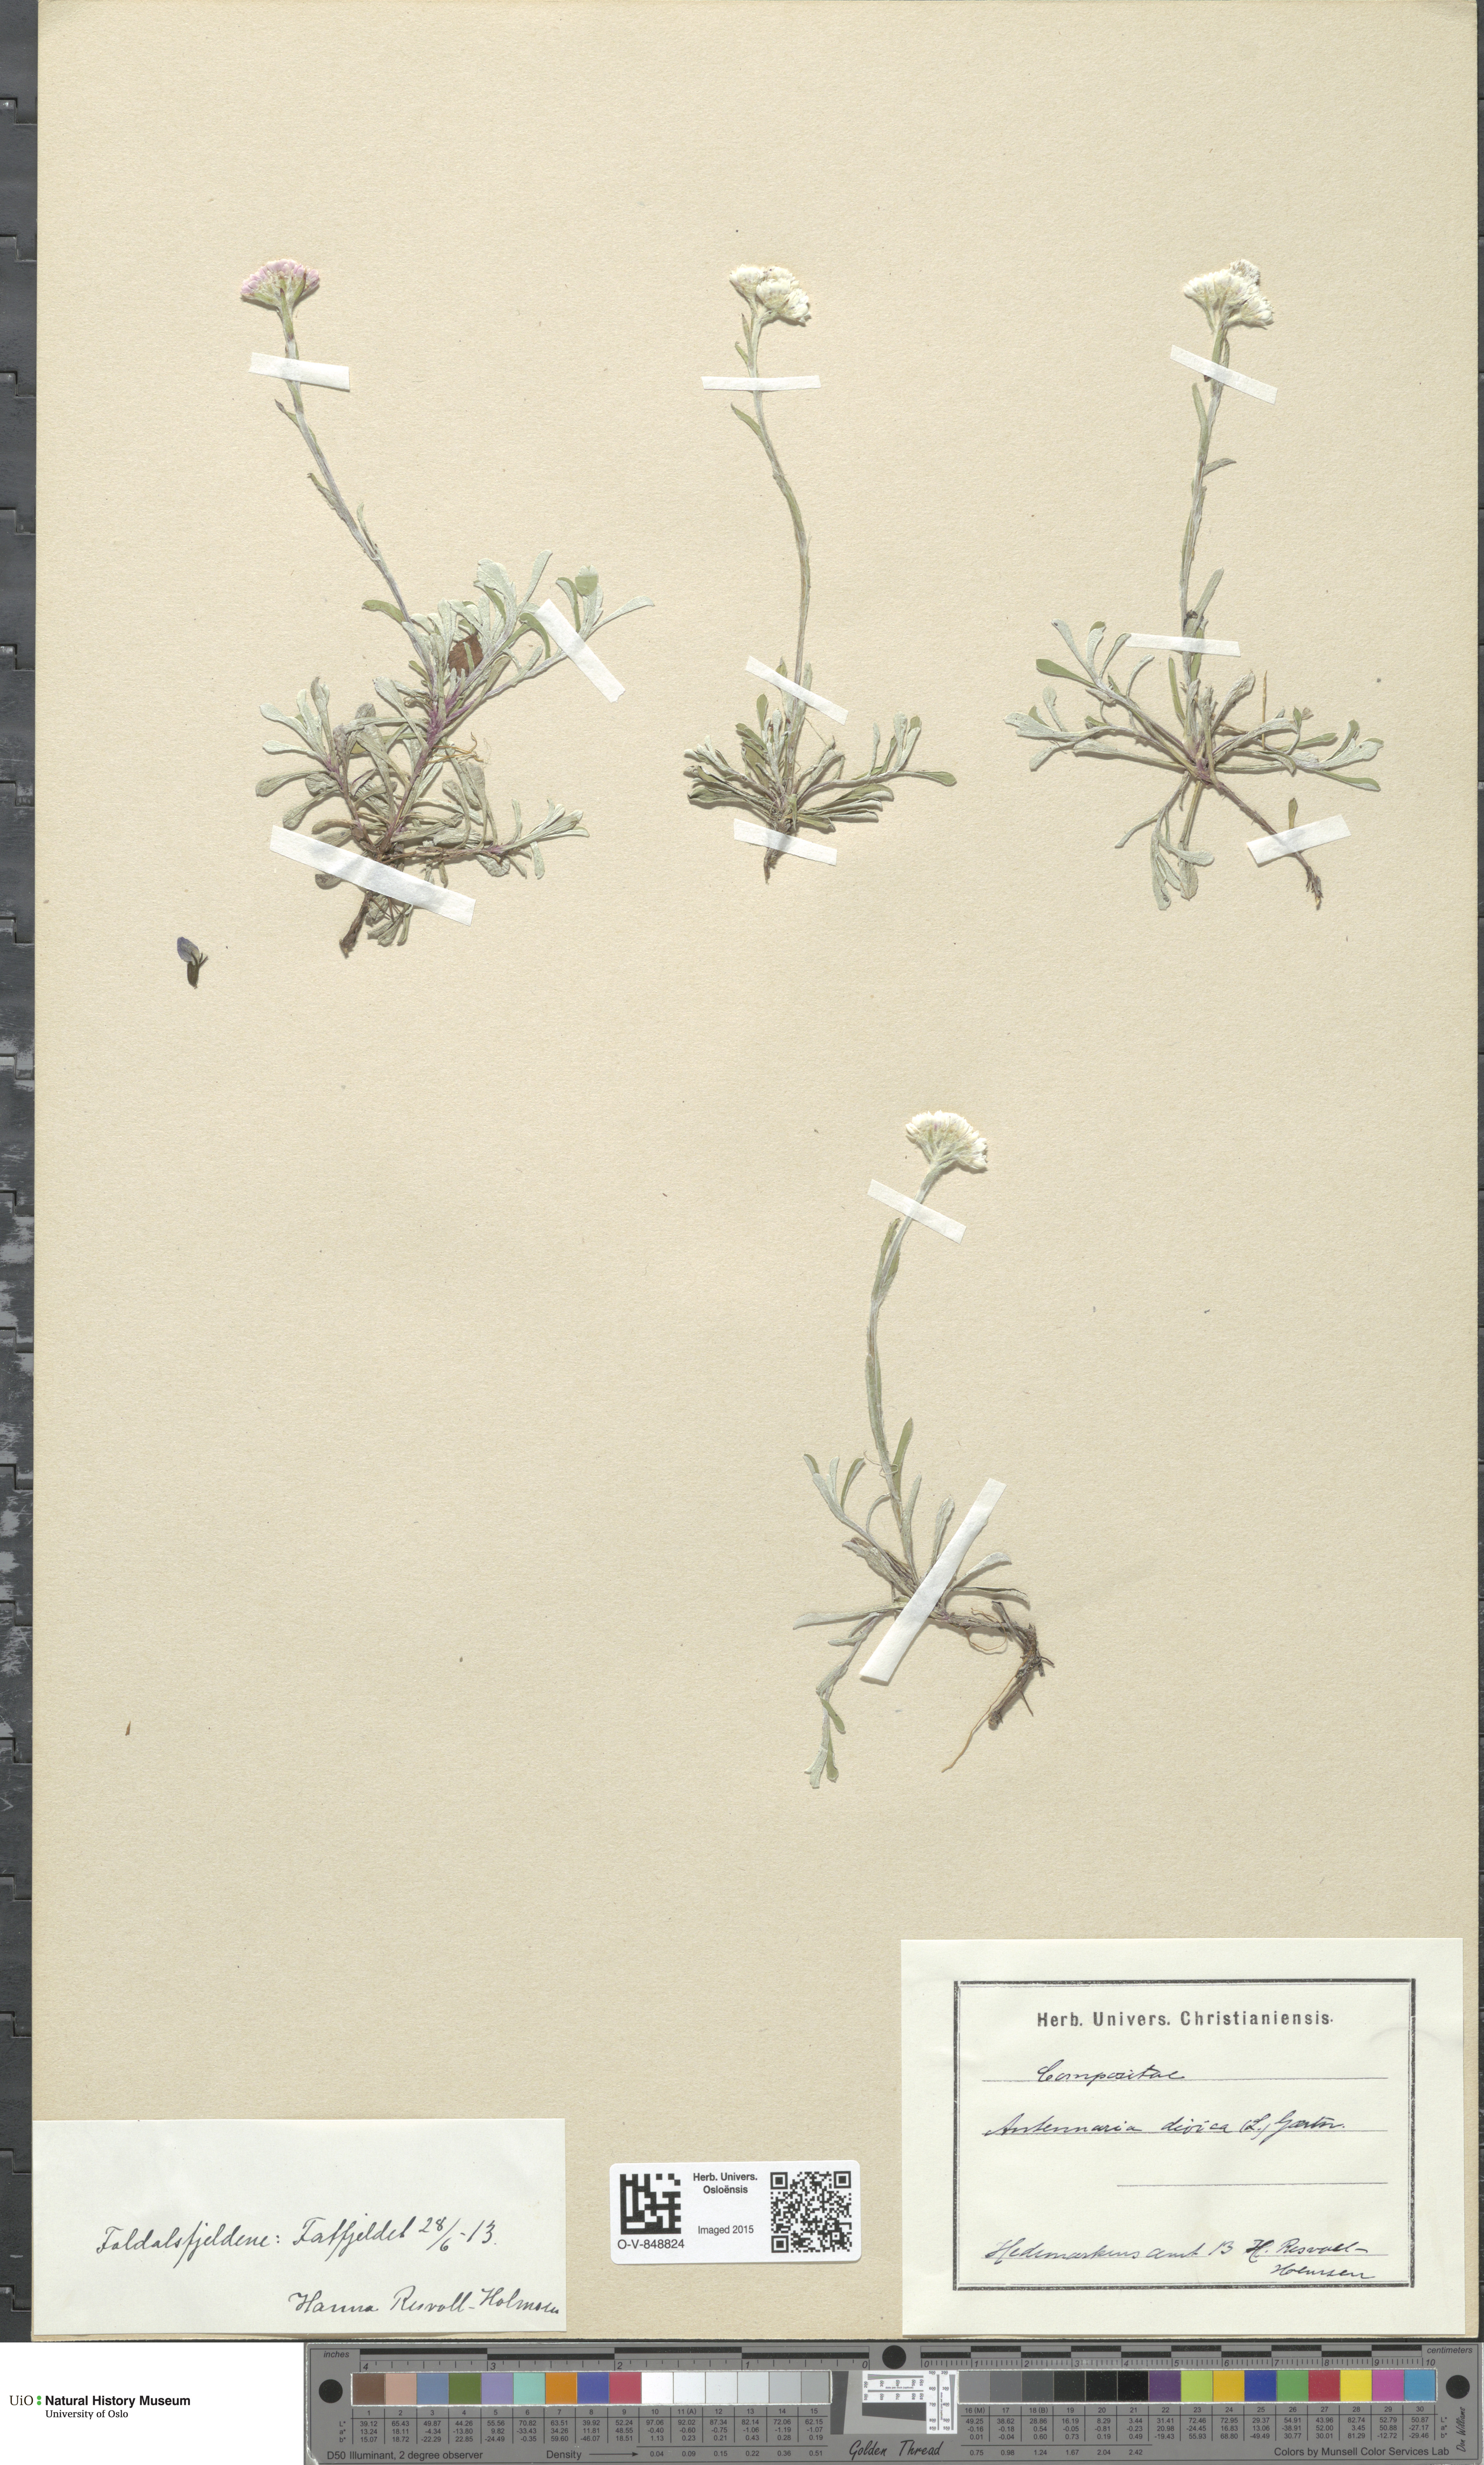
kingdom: Plantae
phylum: Tracheophyta
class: Magnoliopsida
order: Asterales
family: Asteraceae
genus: Antennaria
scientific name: Antennaria dioica
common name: Mountain everlasting
